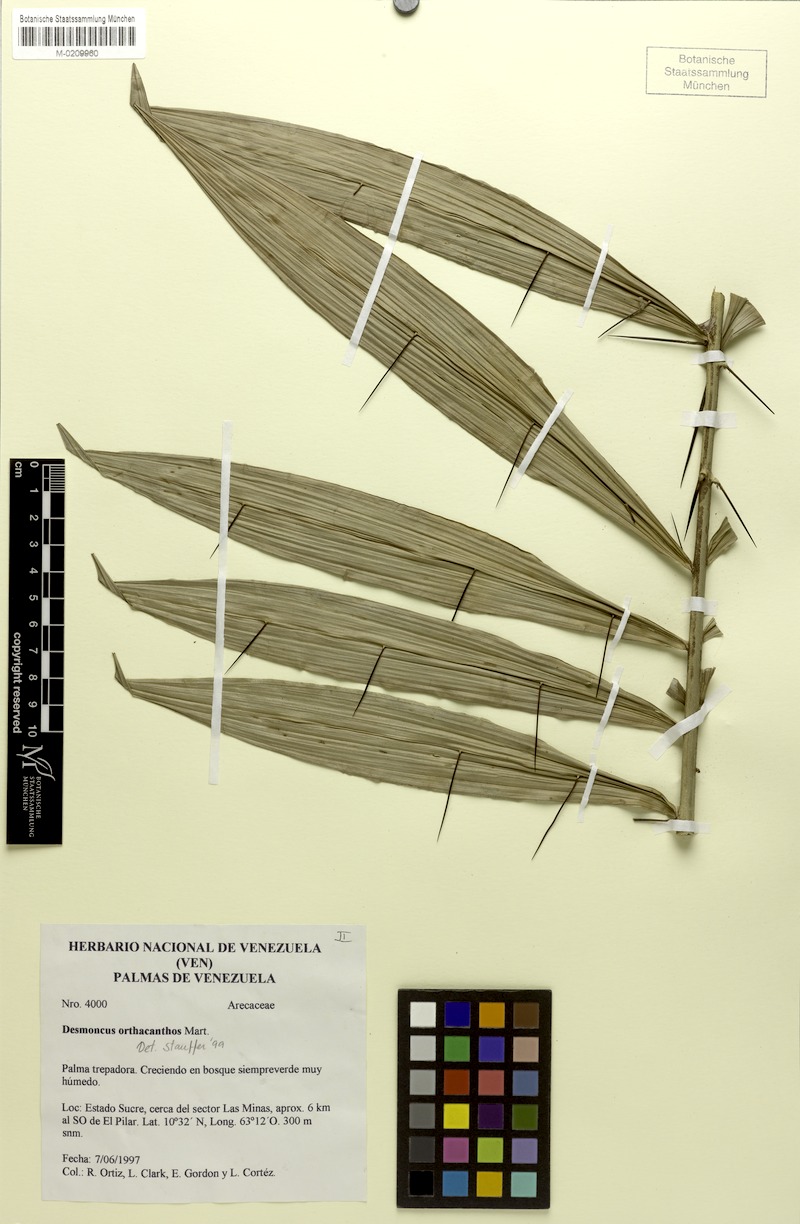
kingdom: Plantae
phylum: Tracheophyta
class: Liliopsida
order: Arecales
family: Arecaceae
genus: Desmoncus
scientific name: Desmoncus orthacanthos
